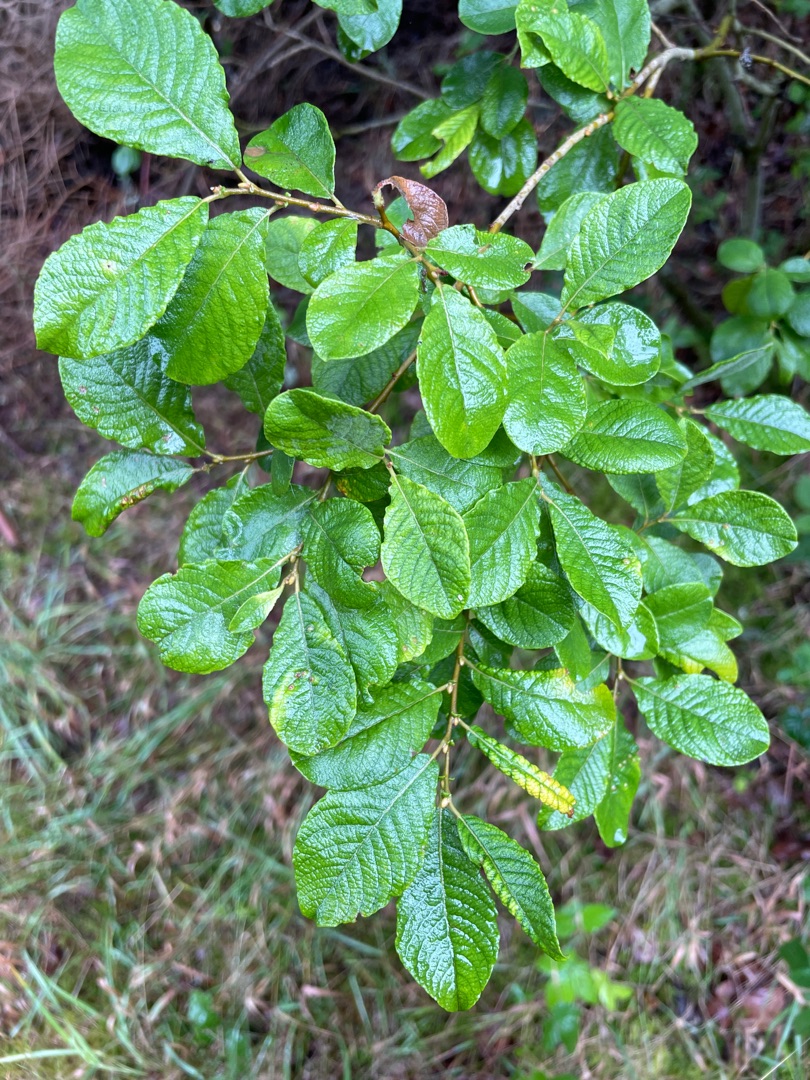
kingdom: Plantae
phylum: Tracheophyta
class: Magnoliopsida
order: Malpighiales
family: Salicaceae
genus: Salix
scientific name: Salix aurita
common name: Øret pil
